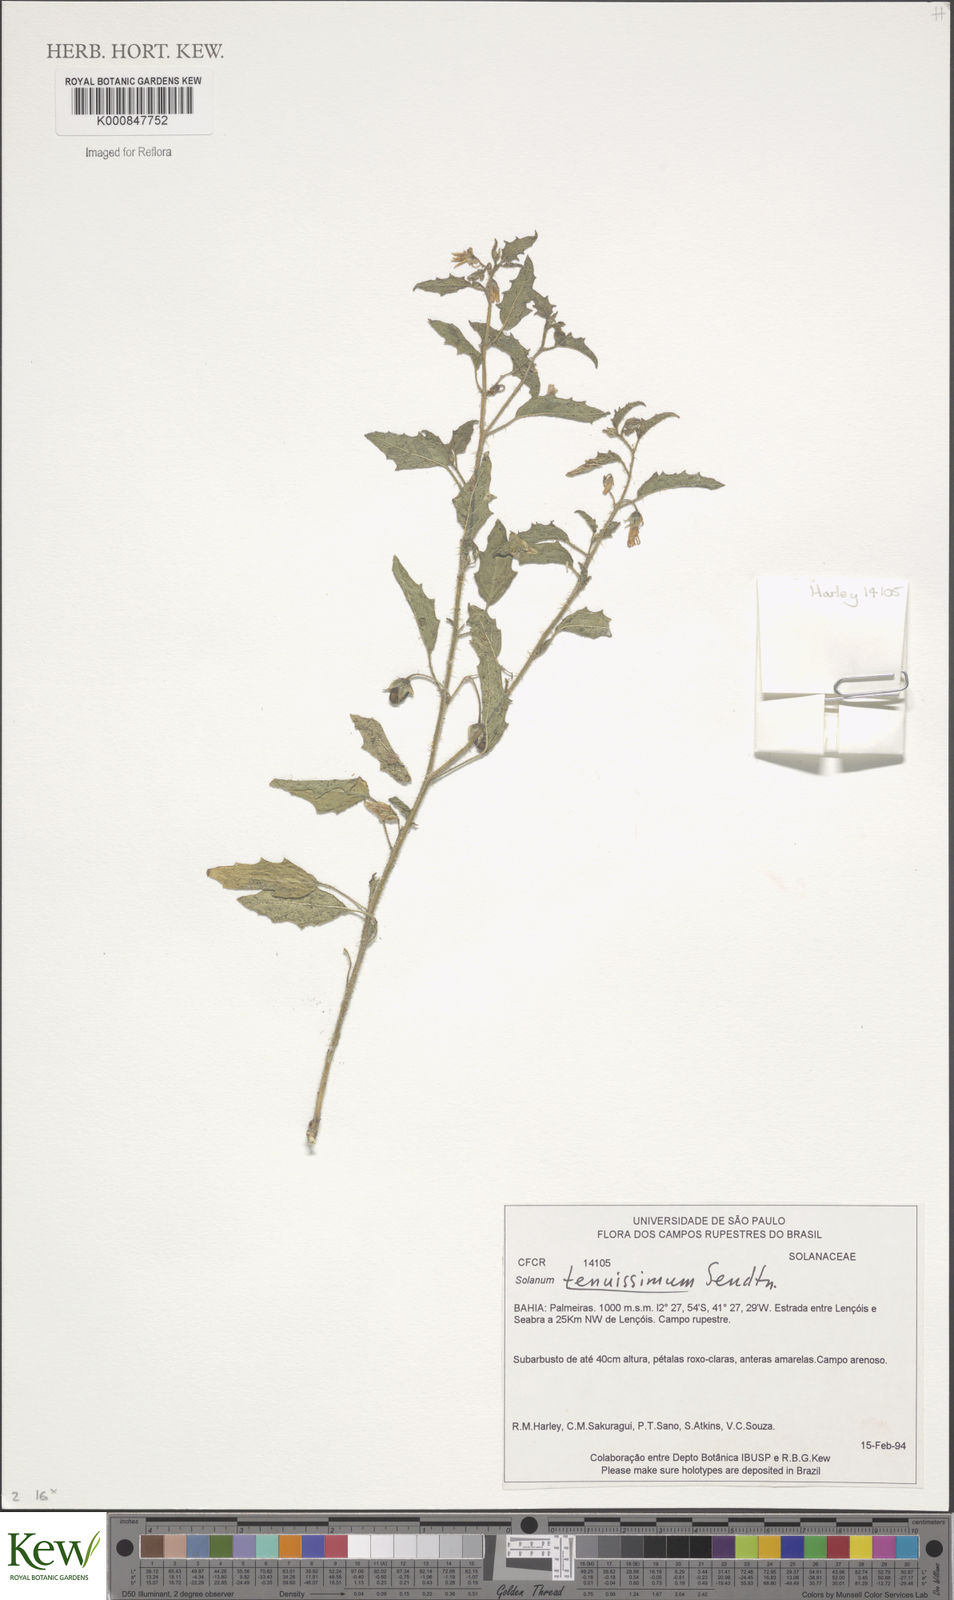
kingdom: Plantae
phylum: Tracheophyta
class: Magnoliopsida
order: Solanales
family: Solanaceae
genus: Solanum
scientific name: Solanum tenuissimum
